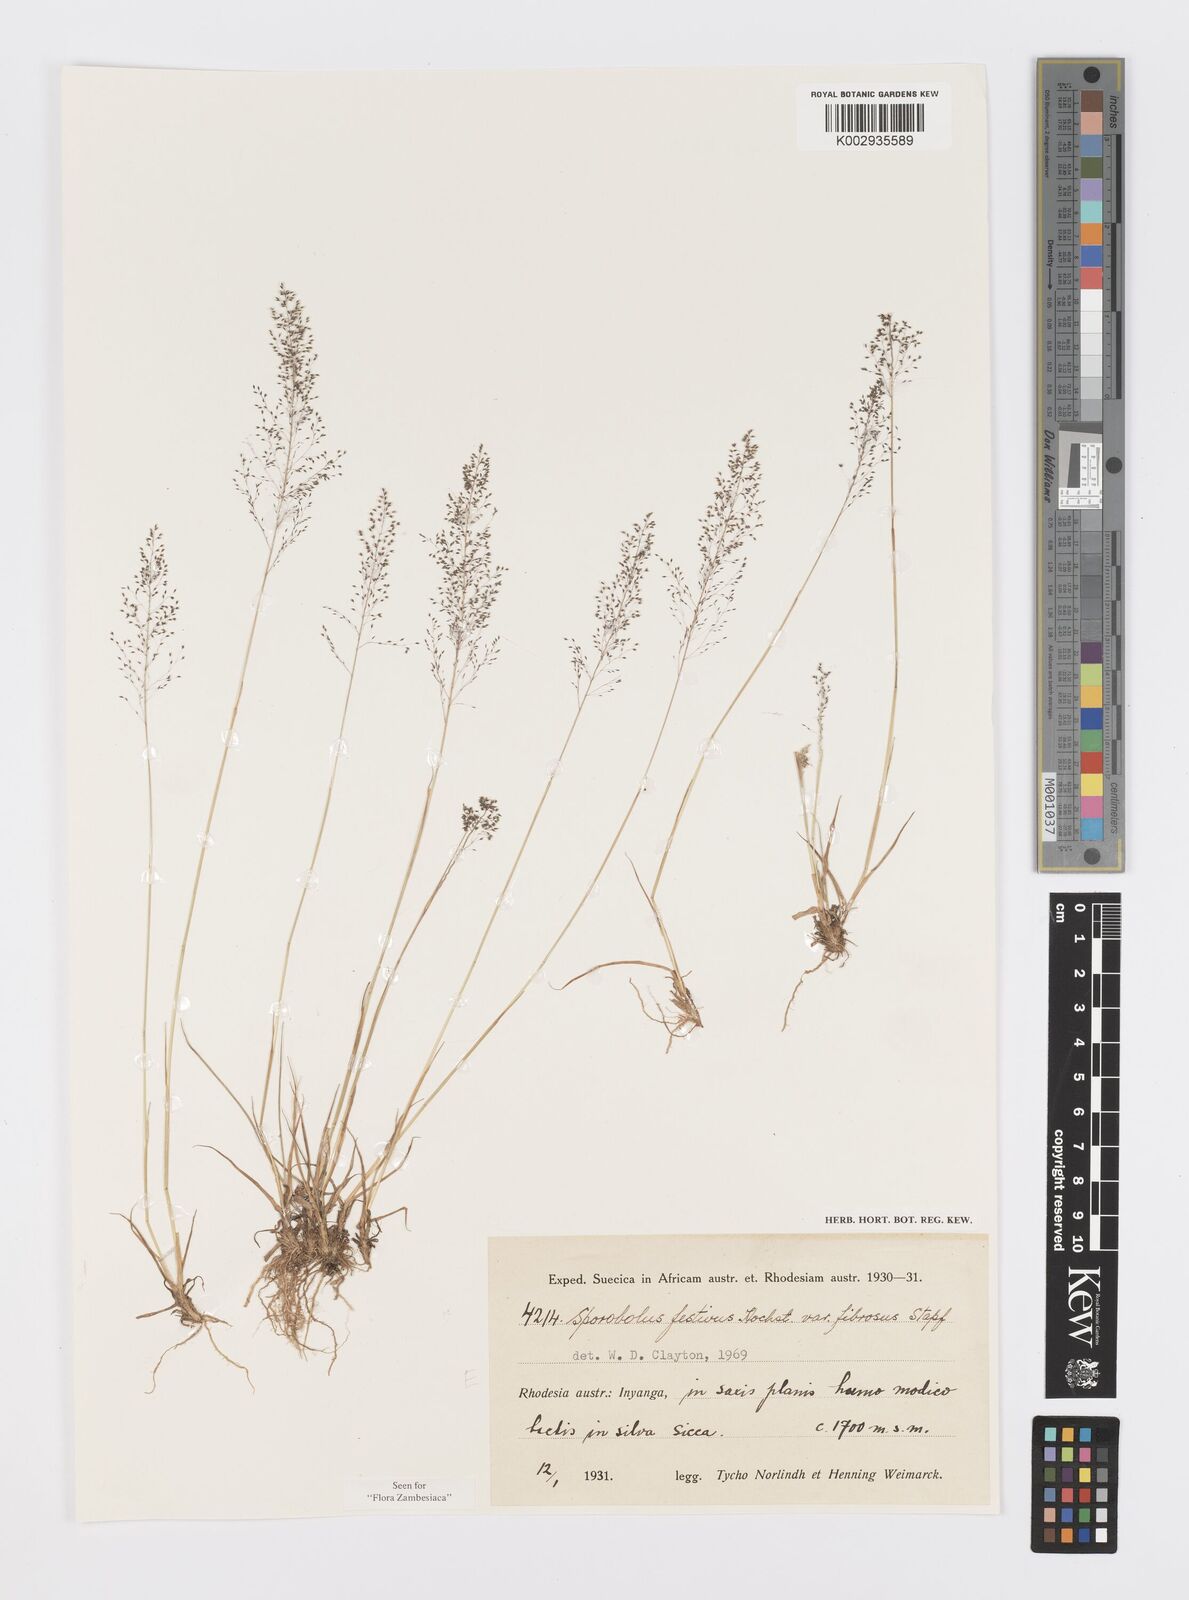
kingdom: Plantae
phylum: Tracheophyta
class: Liliopsida
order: Poales
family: Poaceae
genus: Sporobolus
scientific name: Sporobolus festivus
